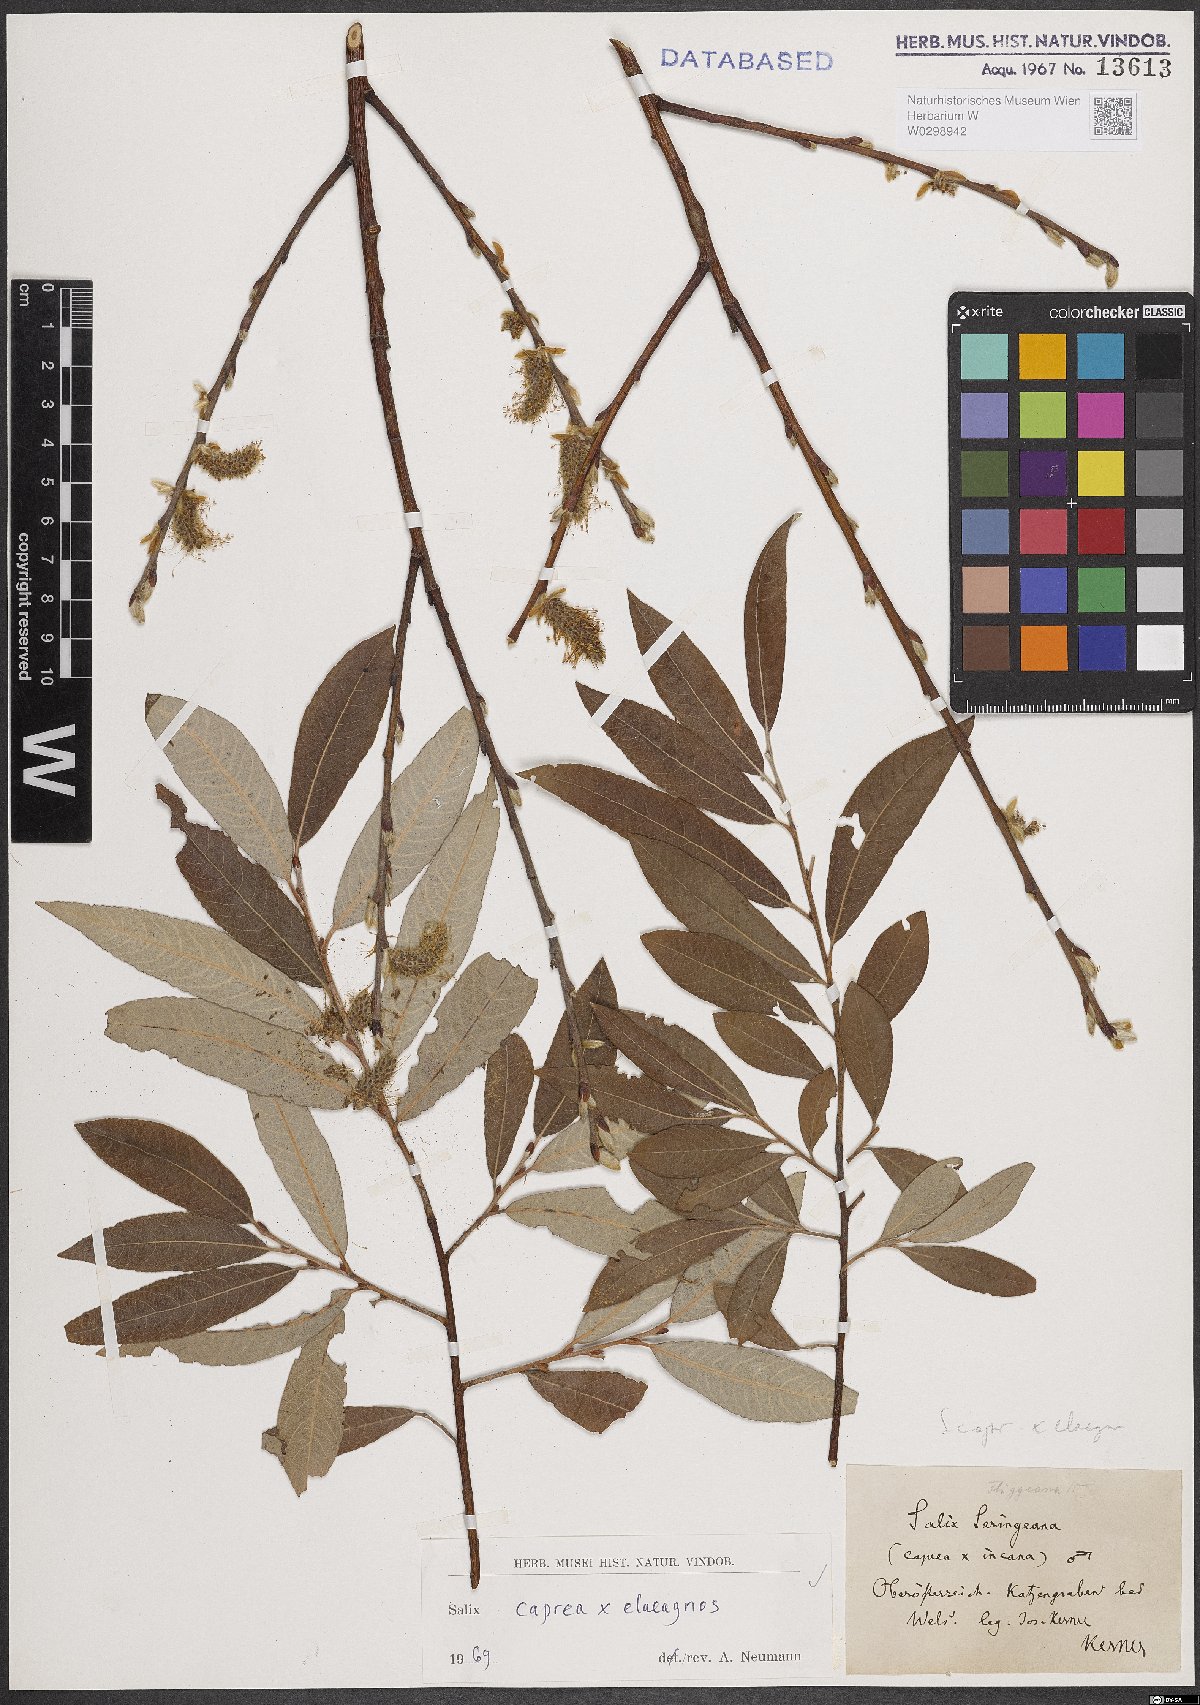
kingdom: Plantae
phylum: Tracheophyta
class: Magnoliopsida
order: Malpighiales
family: Salicaceae
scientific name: Salicaceae
